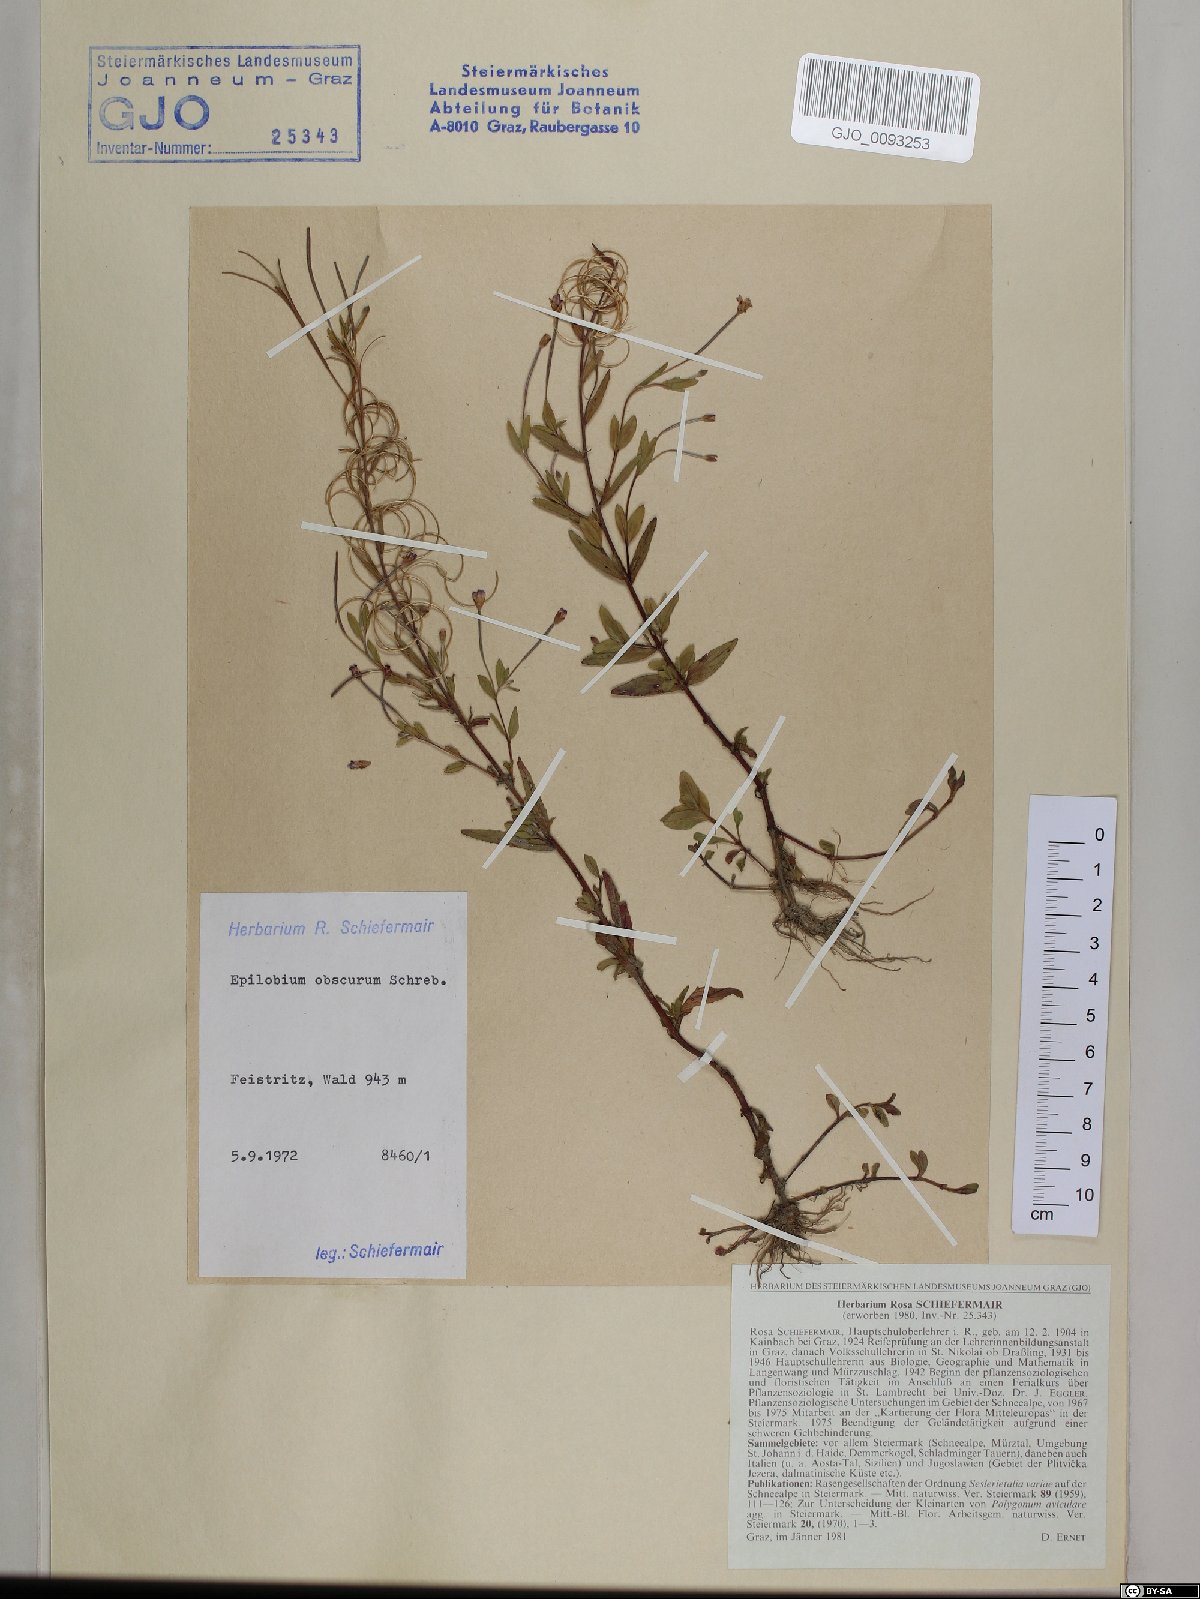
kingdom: Plantae
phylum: Tracheophyta
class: Magnoliopsida
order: Myrtales
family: Onagraceae
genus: Epilobium
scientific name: Epilobium obscurum
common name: Short-fruited willowherb
